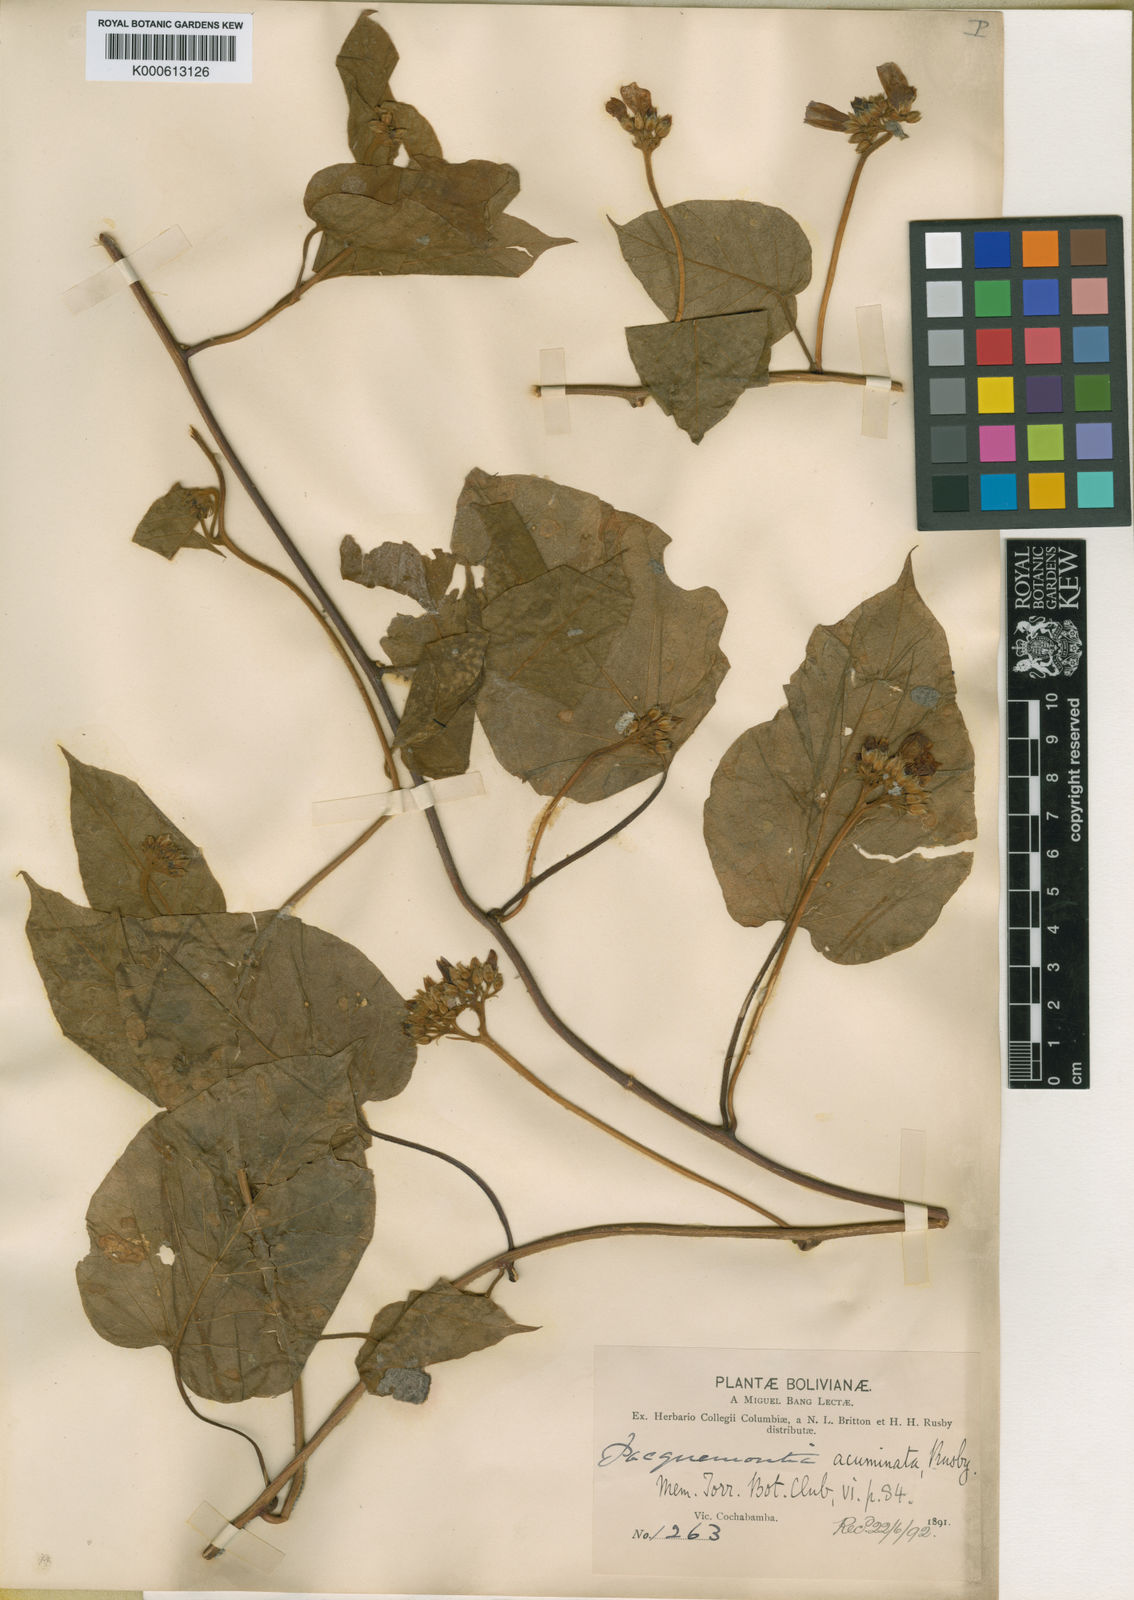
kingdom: Plantae
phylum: Tracheophyta
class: Magnoliopsida
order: Solanales
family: Convolvulaceae
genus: Jacquemontia
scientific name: Jacquemontia acuminata
